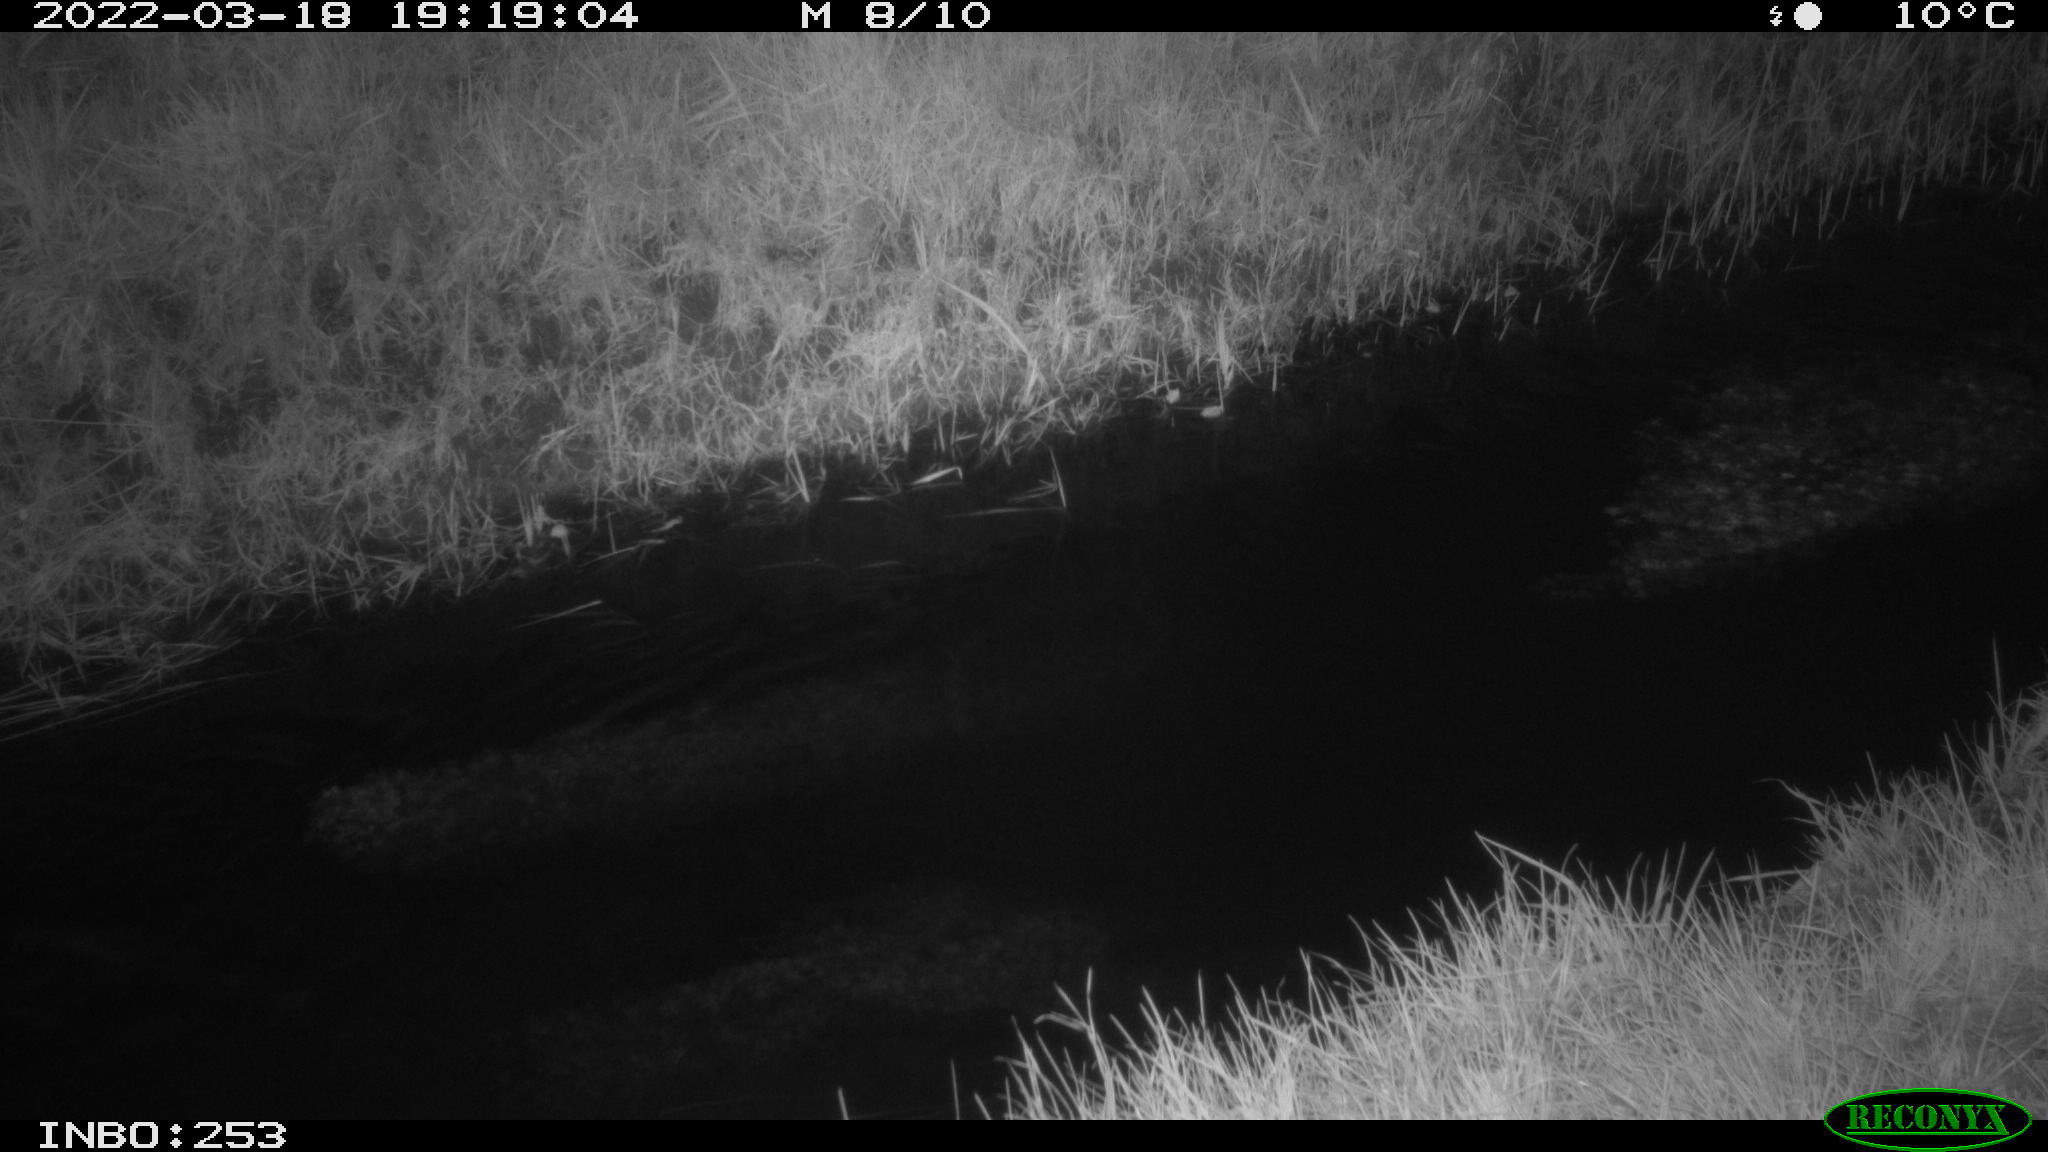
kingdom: Animalia
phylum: Chordata
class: Aves
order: Anseriformes
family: Anatidae
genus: Anas
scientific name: Anas platyrhynchos
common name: Mallard
